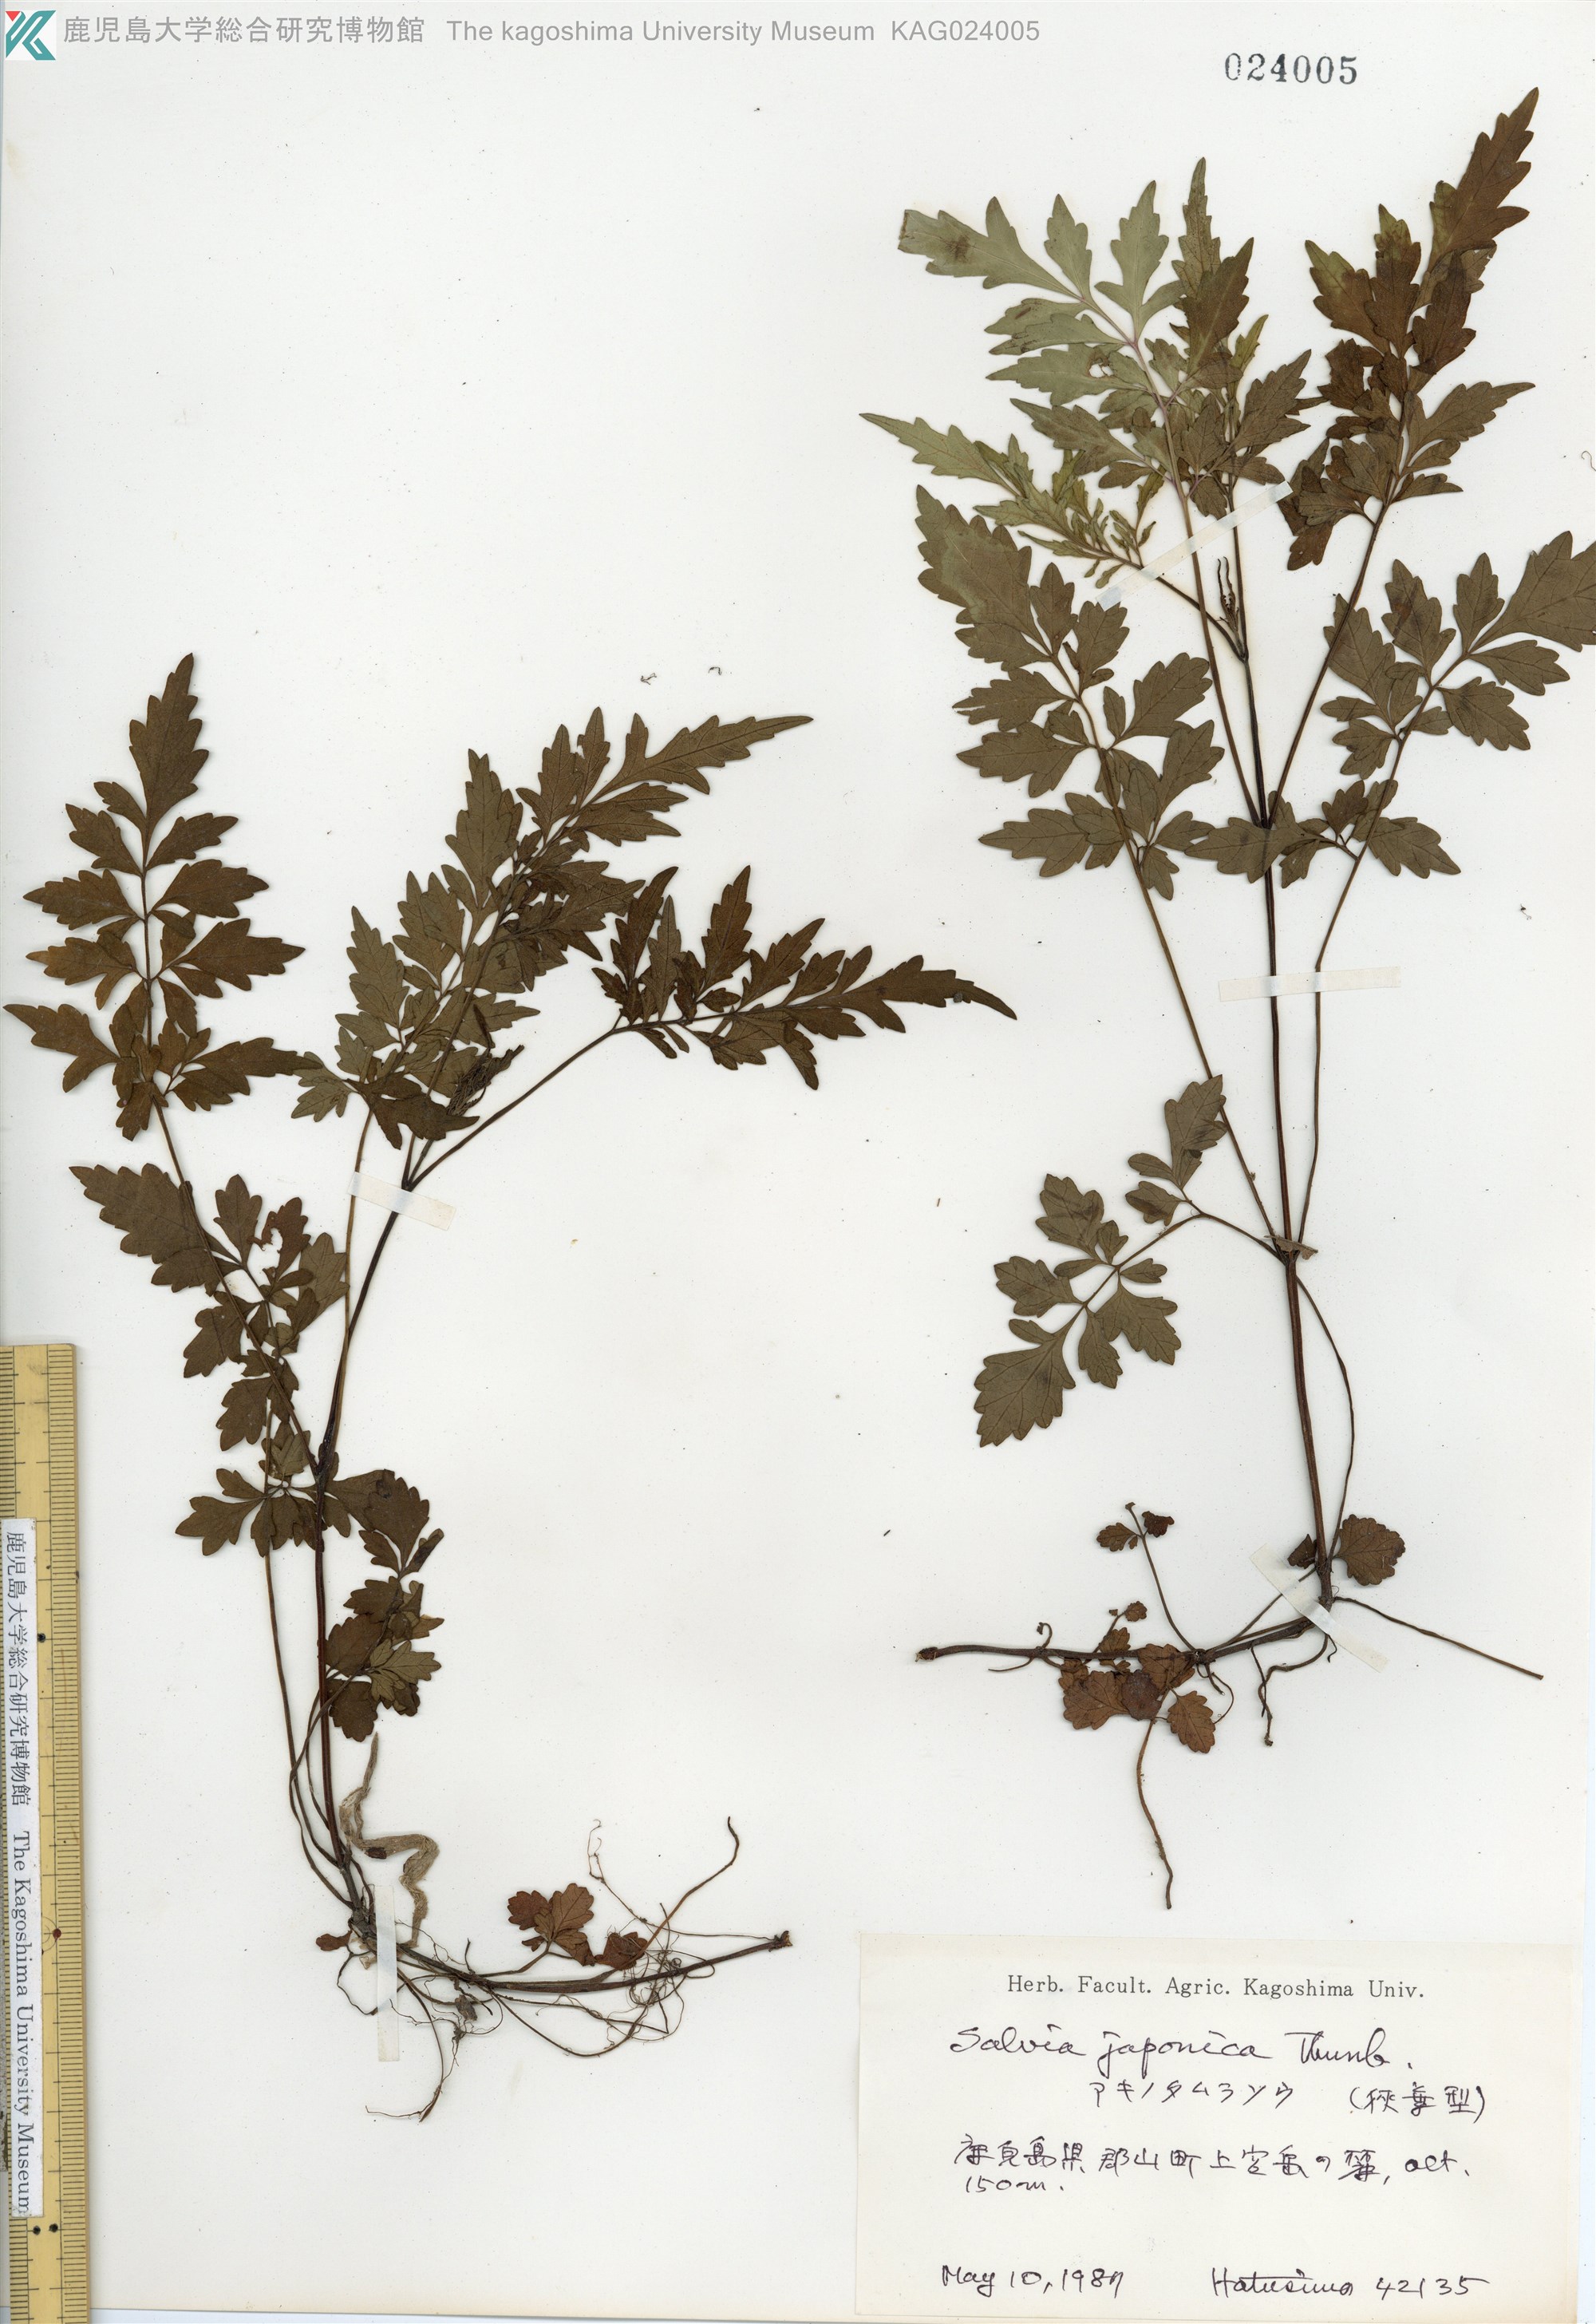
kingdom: Plantae
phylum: Tracheophyta
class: Magnoliopsida
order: Lamiales
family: Lamiaceae
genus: Salvia
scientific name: Salvia japonica
